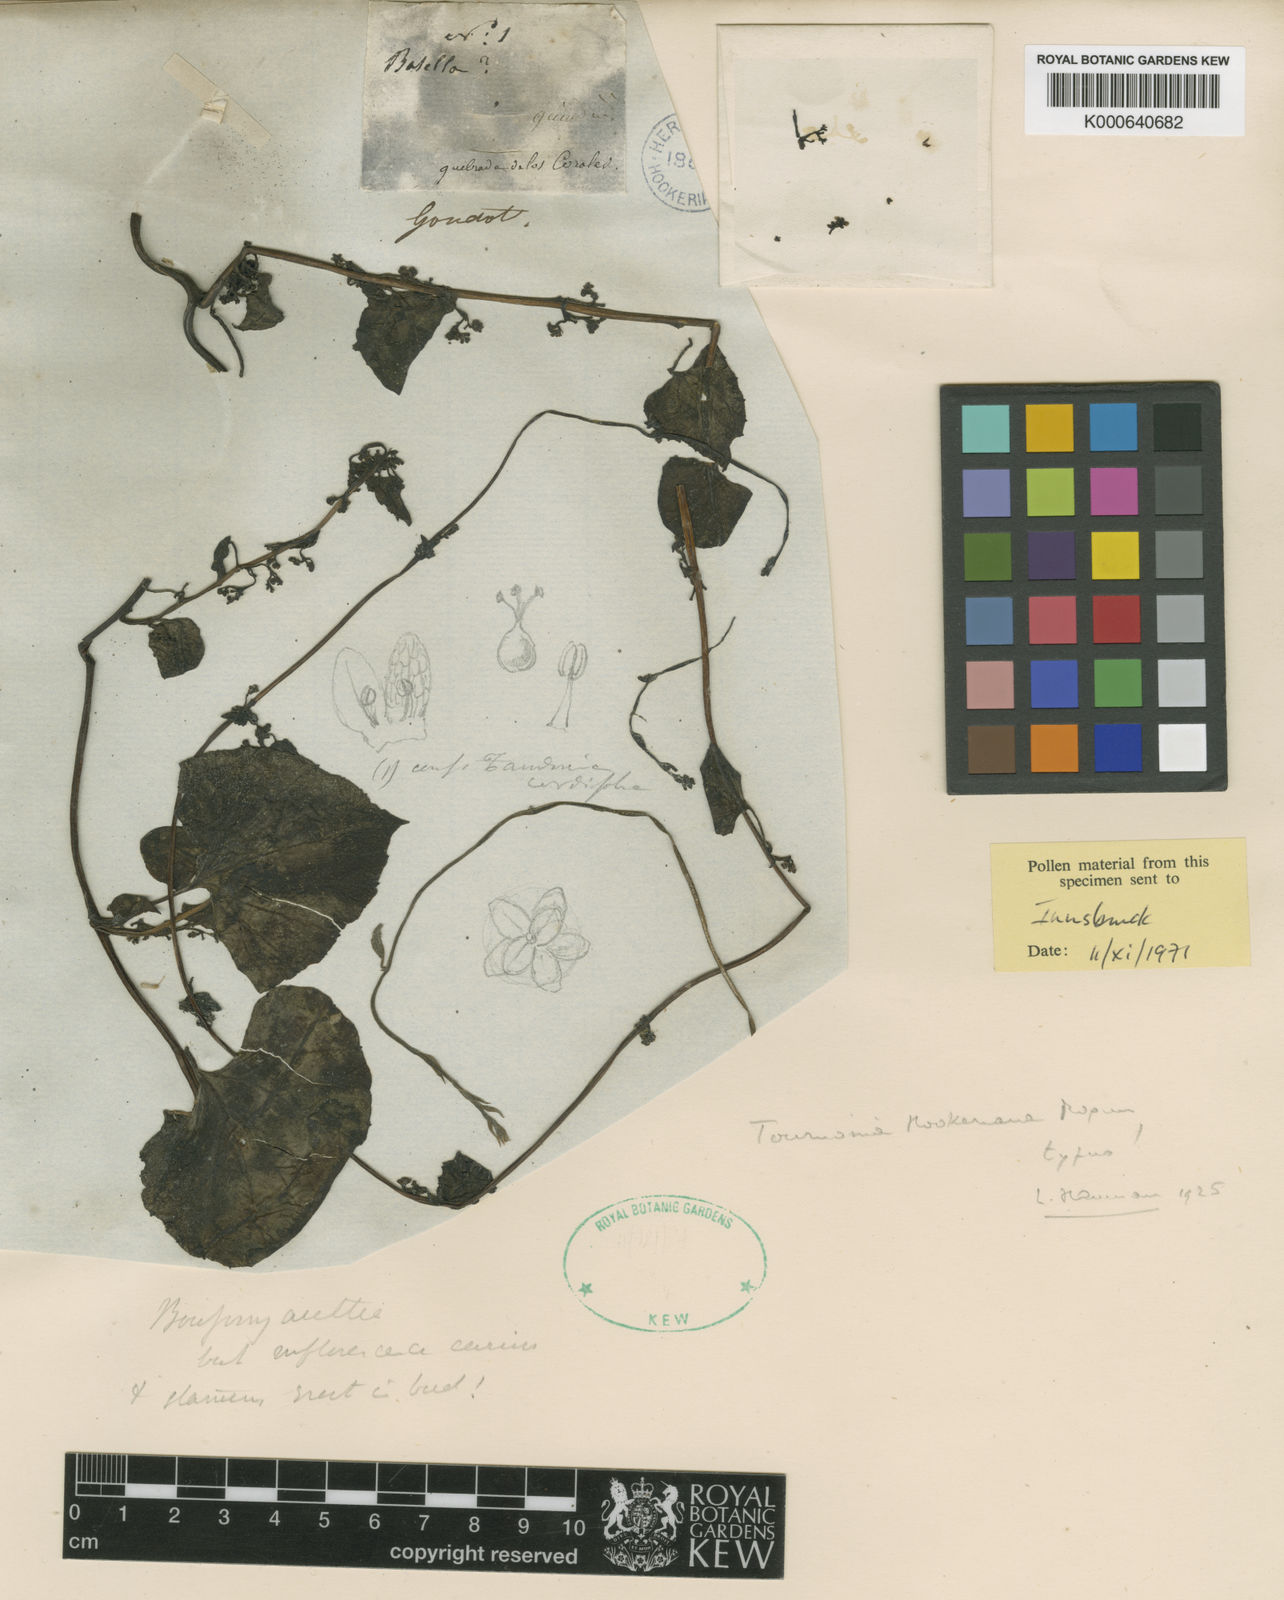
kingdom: Plantae
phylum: Tracheophyta
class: Magnoliopsida
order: Caryophyllales
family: Basellaceae
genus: Tournonia
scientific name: Tournonia hookeriana
